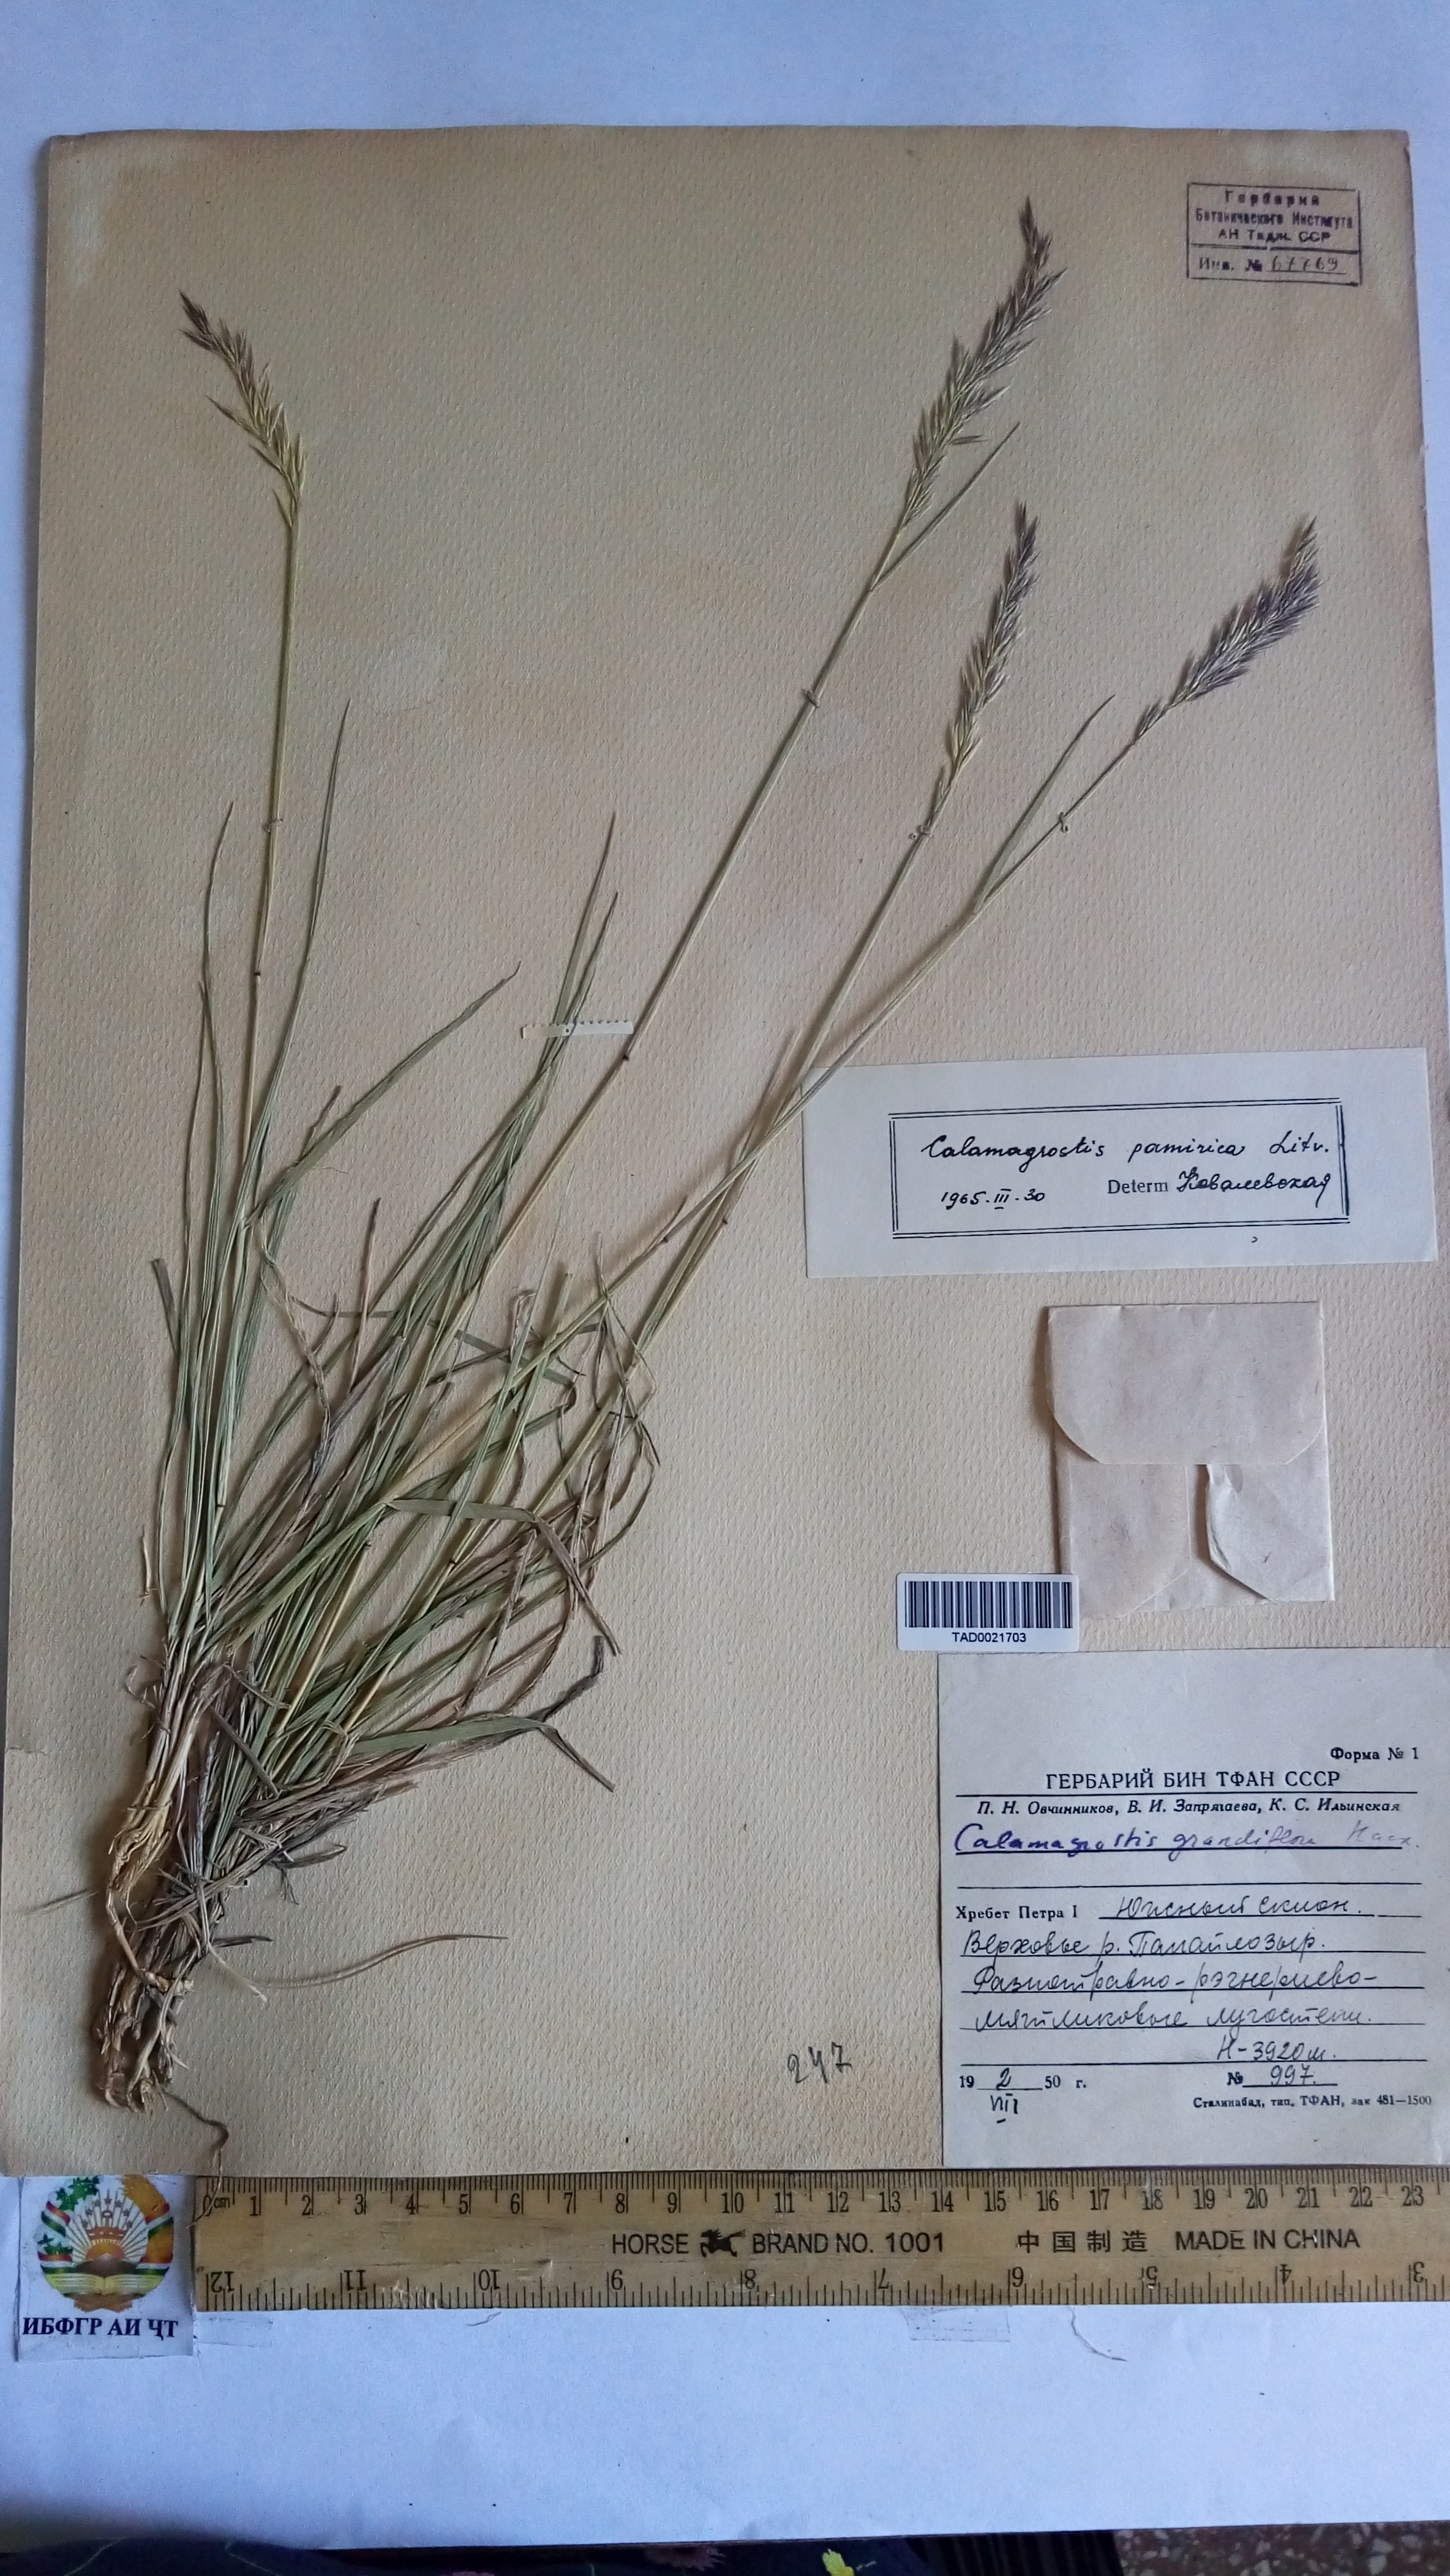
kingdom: Plantae
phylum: Tracheophyta
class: Liliopsida
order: Poales
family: Poaceae
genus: Calamagrostis
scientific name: Calamagrostis holciformis
